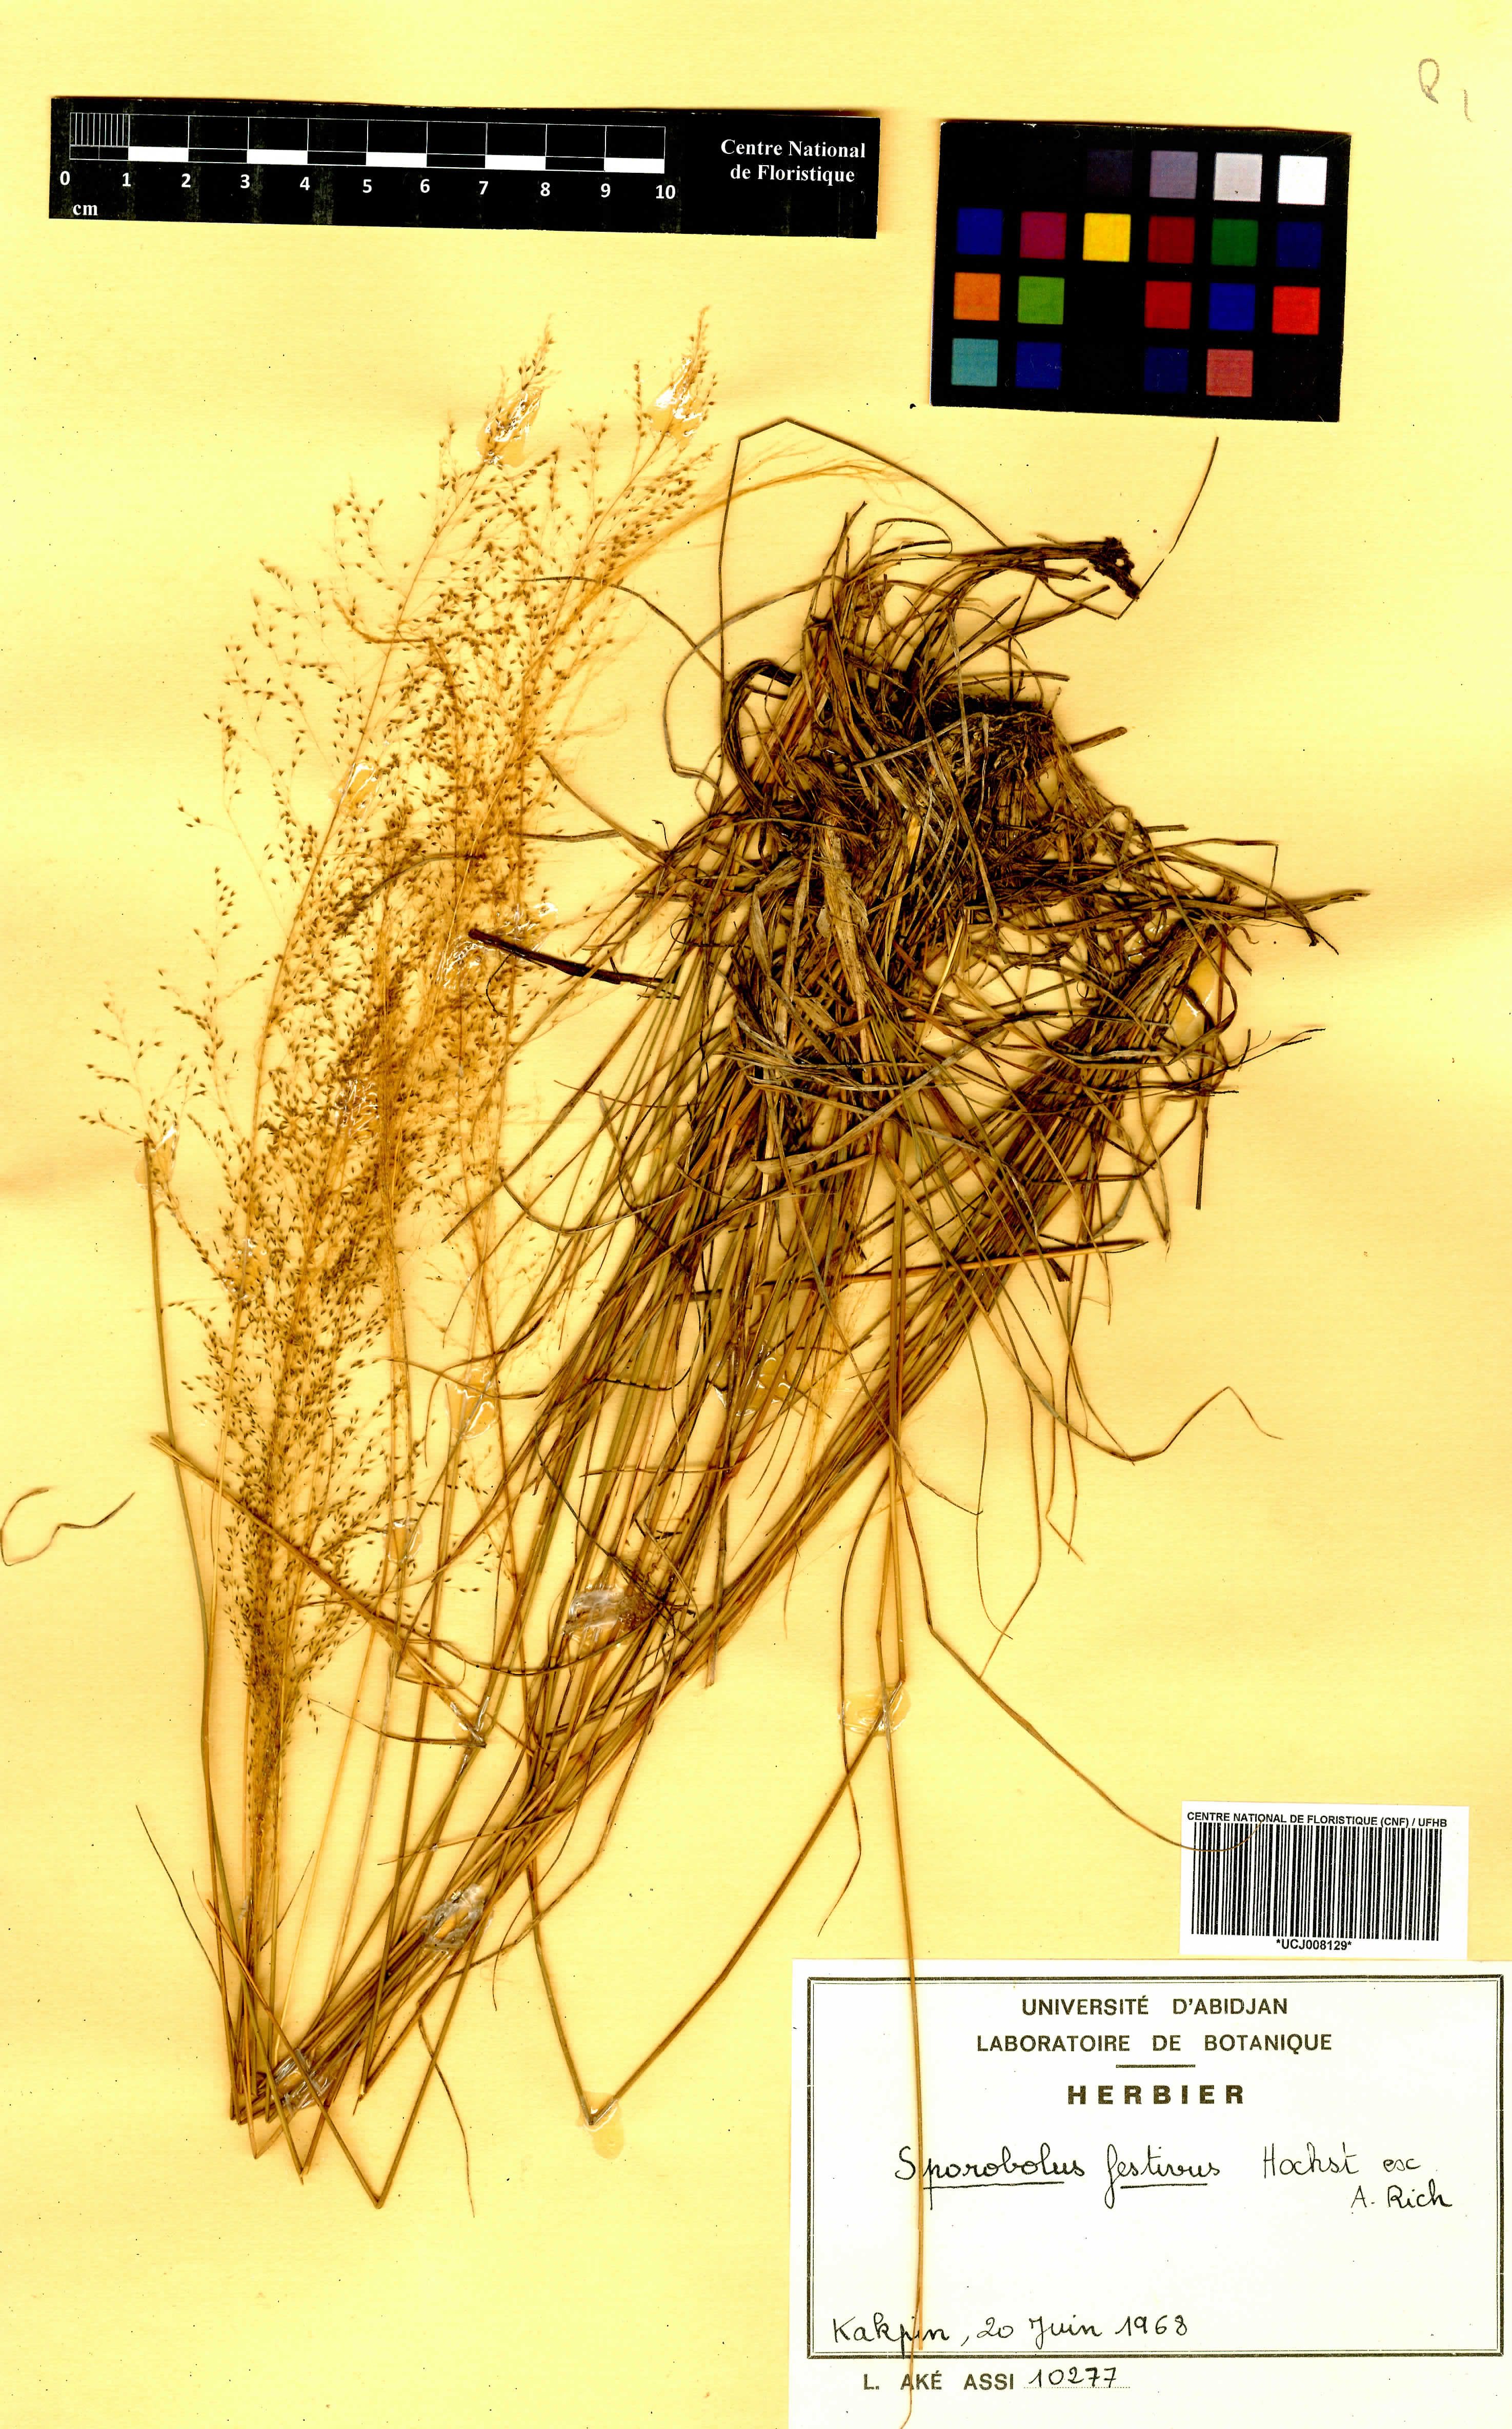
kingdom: Plantae
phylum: Tracheophyta
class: Liliopsida
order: Poales
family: Poaceae
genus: Sporobolus
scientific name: Sporobolus festivus
